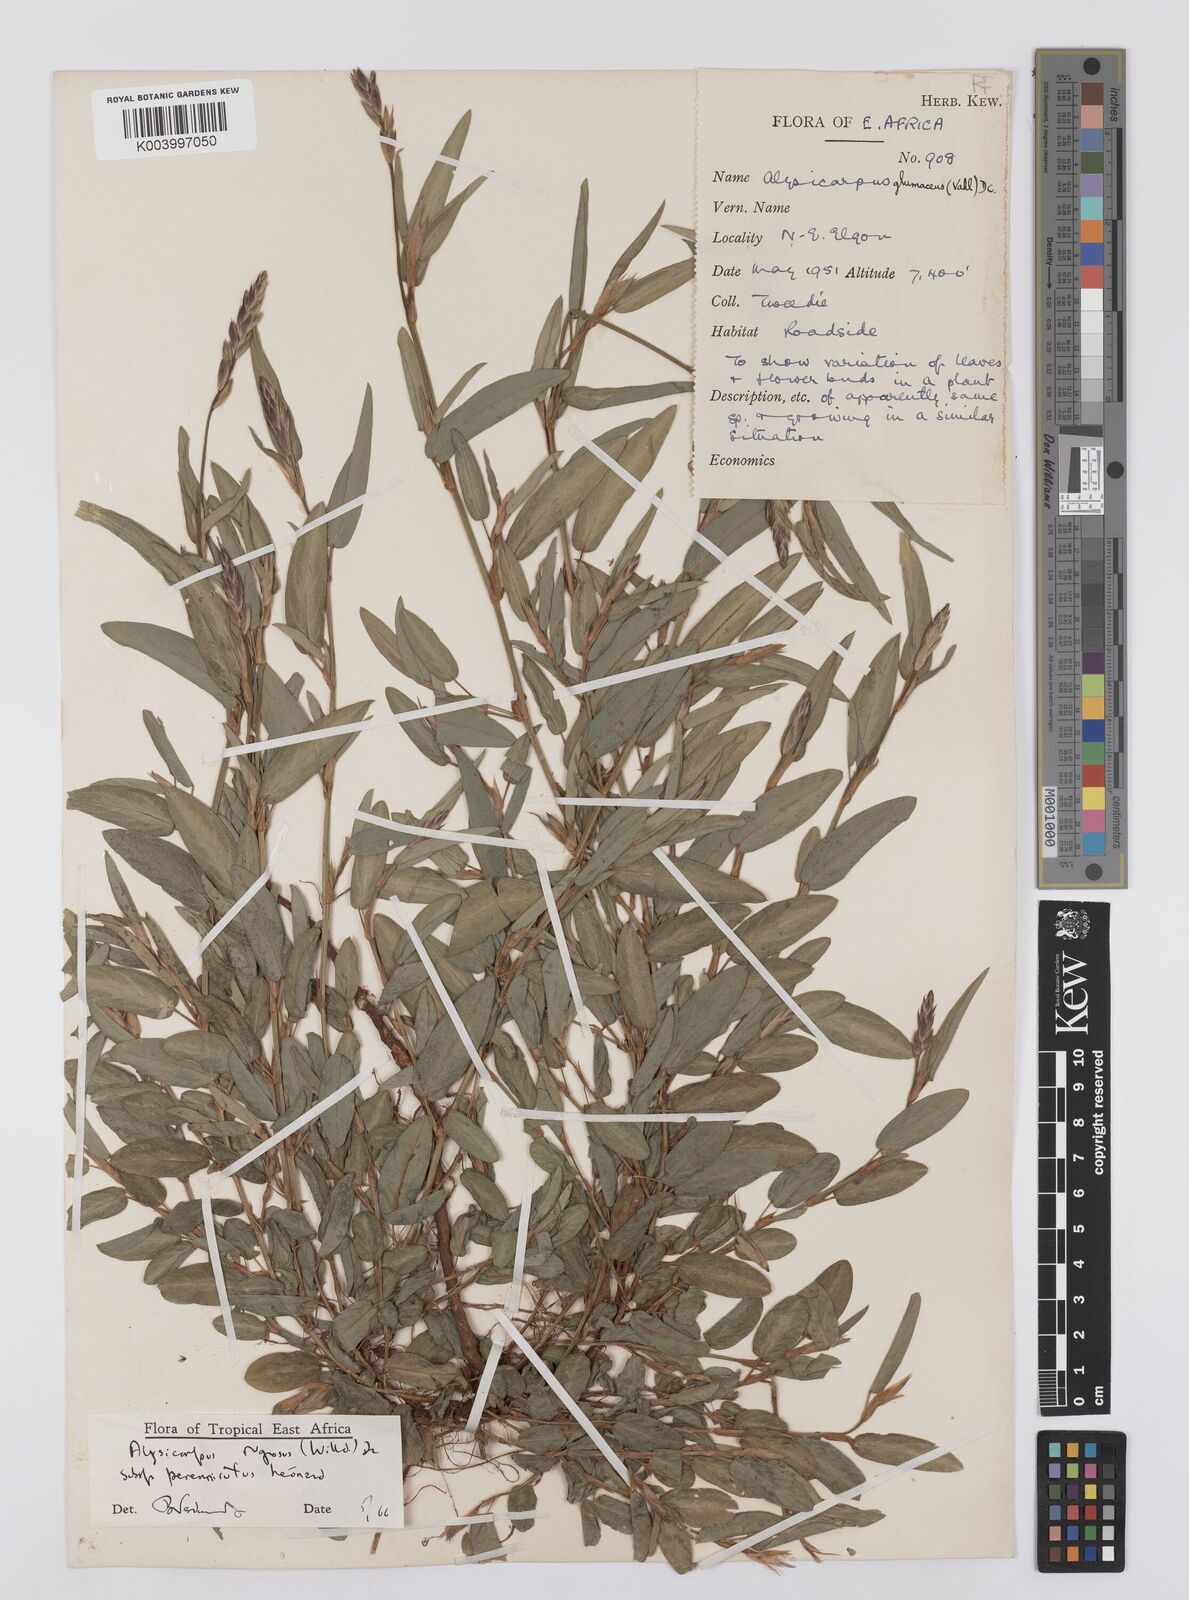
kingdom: Plantae
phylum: Tracheophyta
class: Magnoliopsida
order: Fabales
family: Fabaceae
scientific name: Fabaceae
